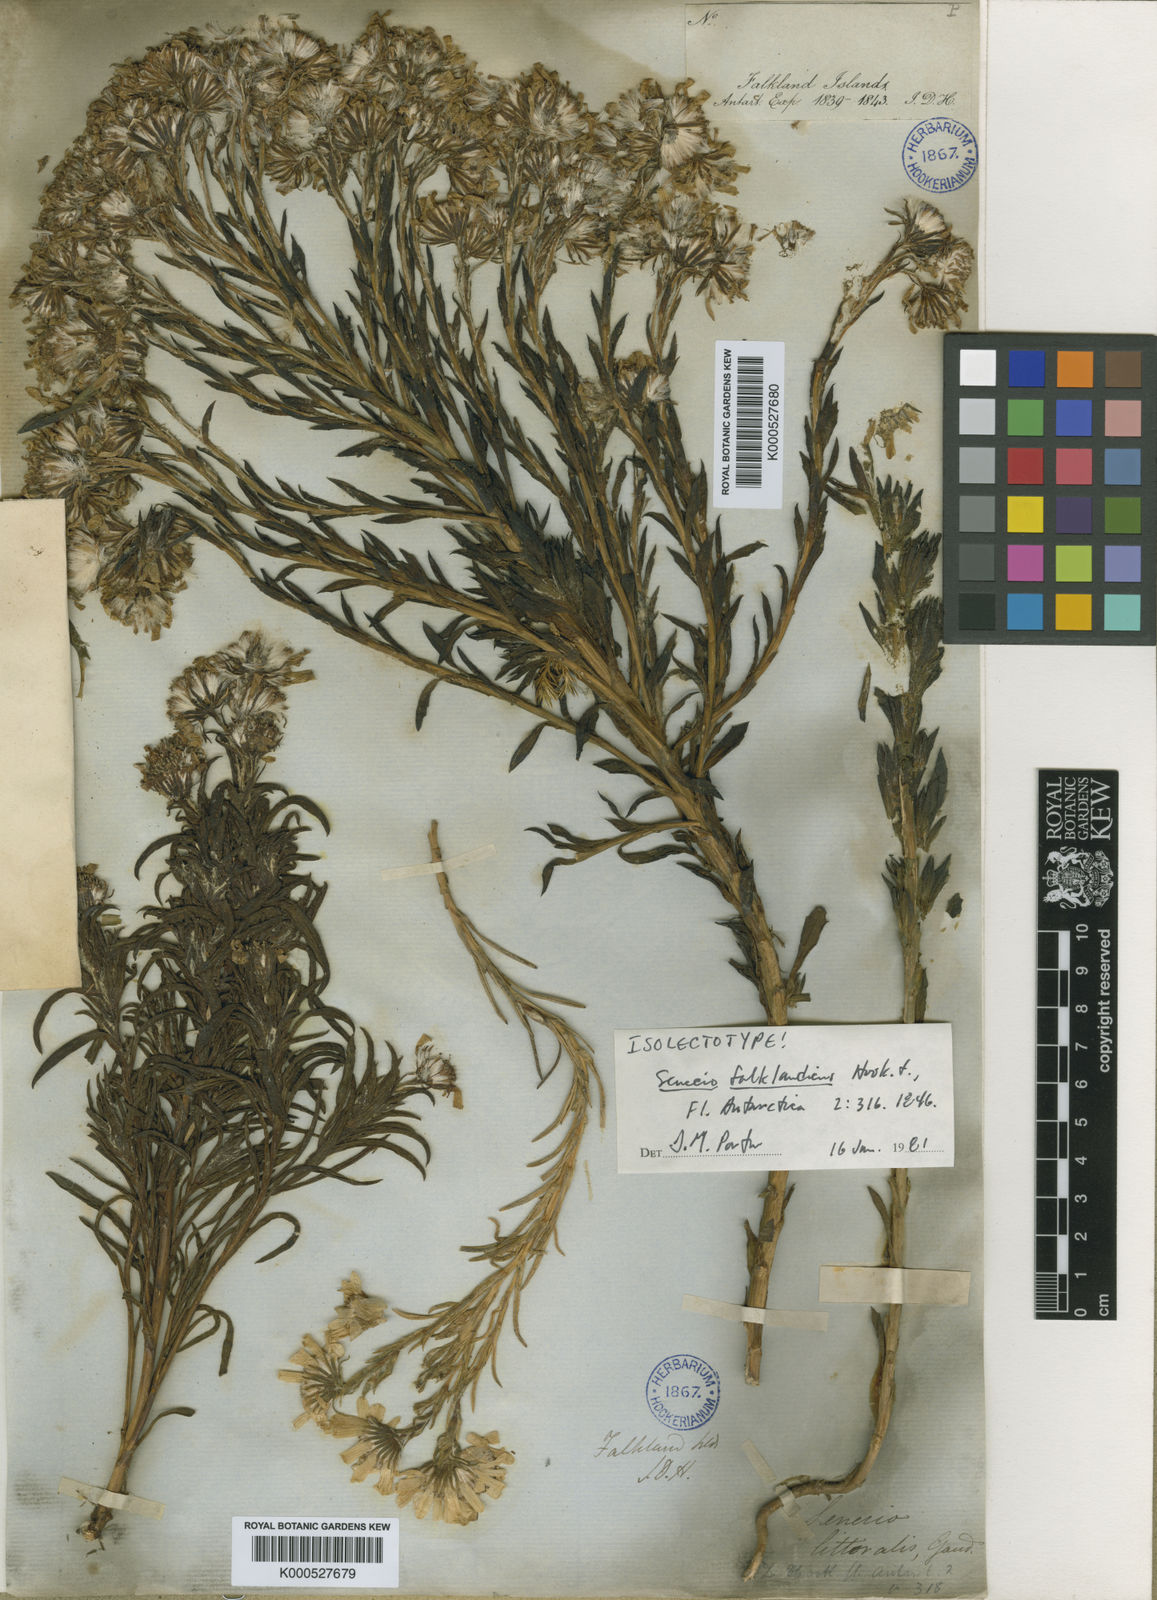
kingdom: Plantae
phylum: Tracheophyta
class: Magnoliopsida
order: Asterales
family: Asteraceae
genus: Senecio
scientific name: Senecio vaginatus
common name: Smooth falkland daisy
